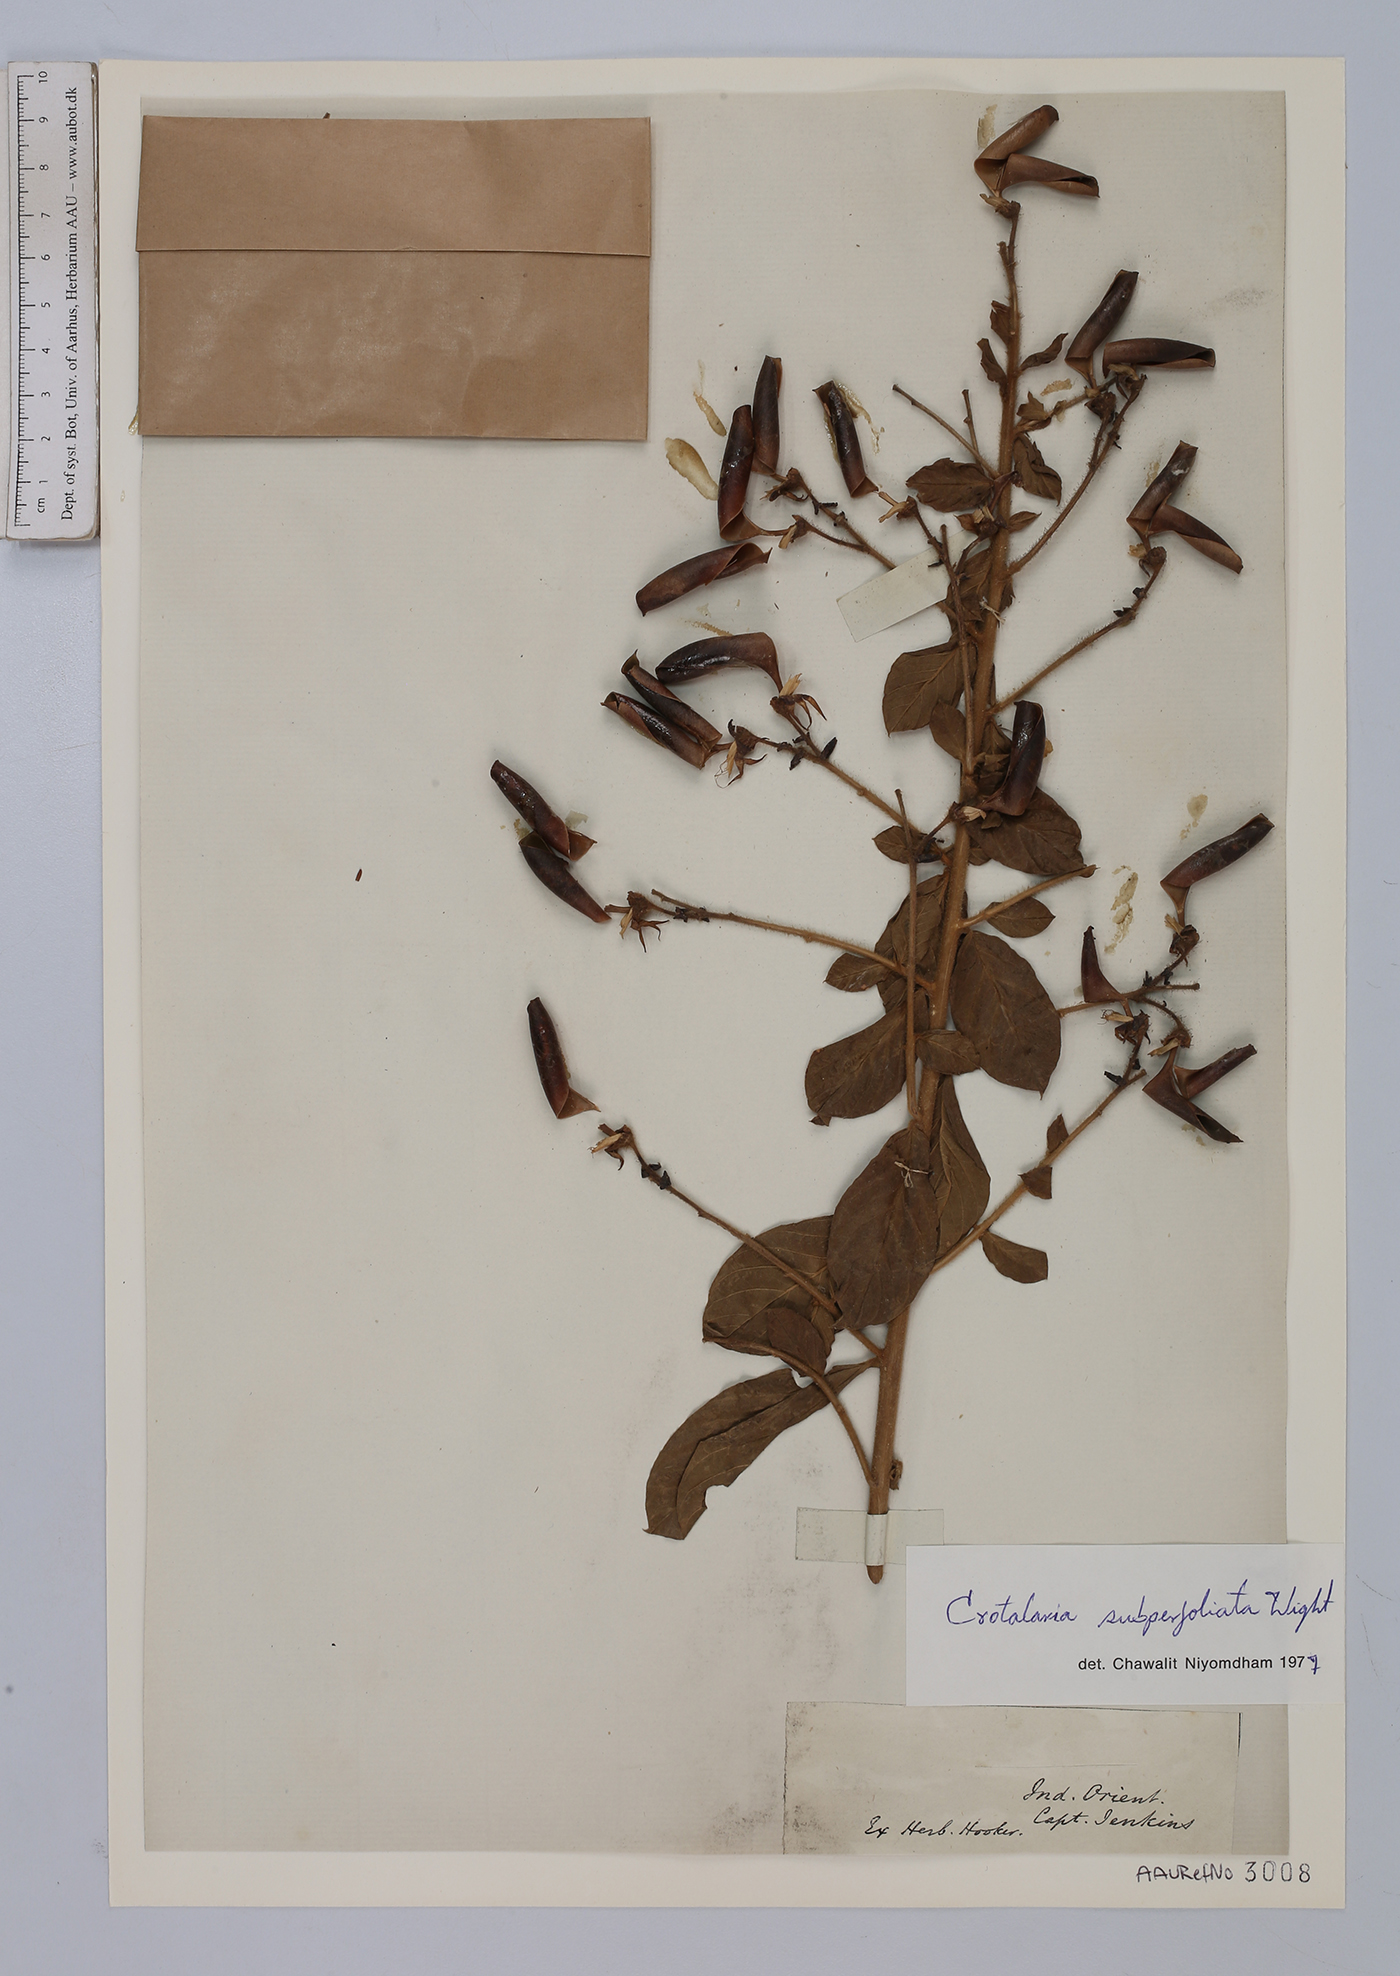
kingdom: Plantae
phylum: Tracheophyta
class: Magnoliopsida
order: Fabales
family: Fabaceae
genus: Crotalaria
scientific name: Crotalaria subperfoliata
